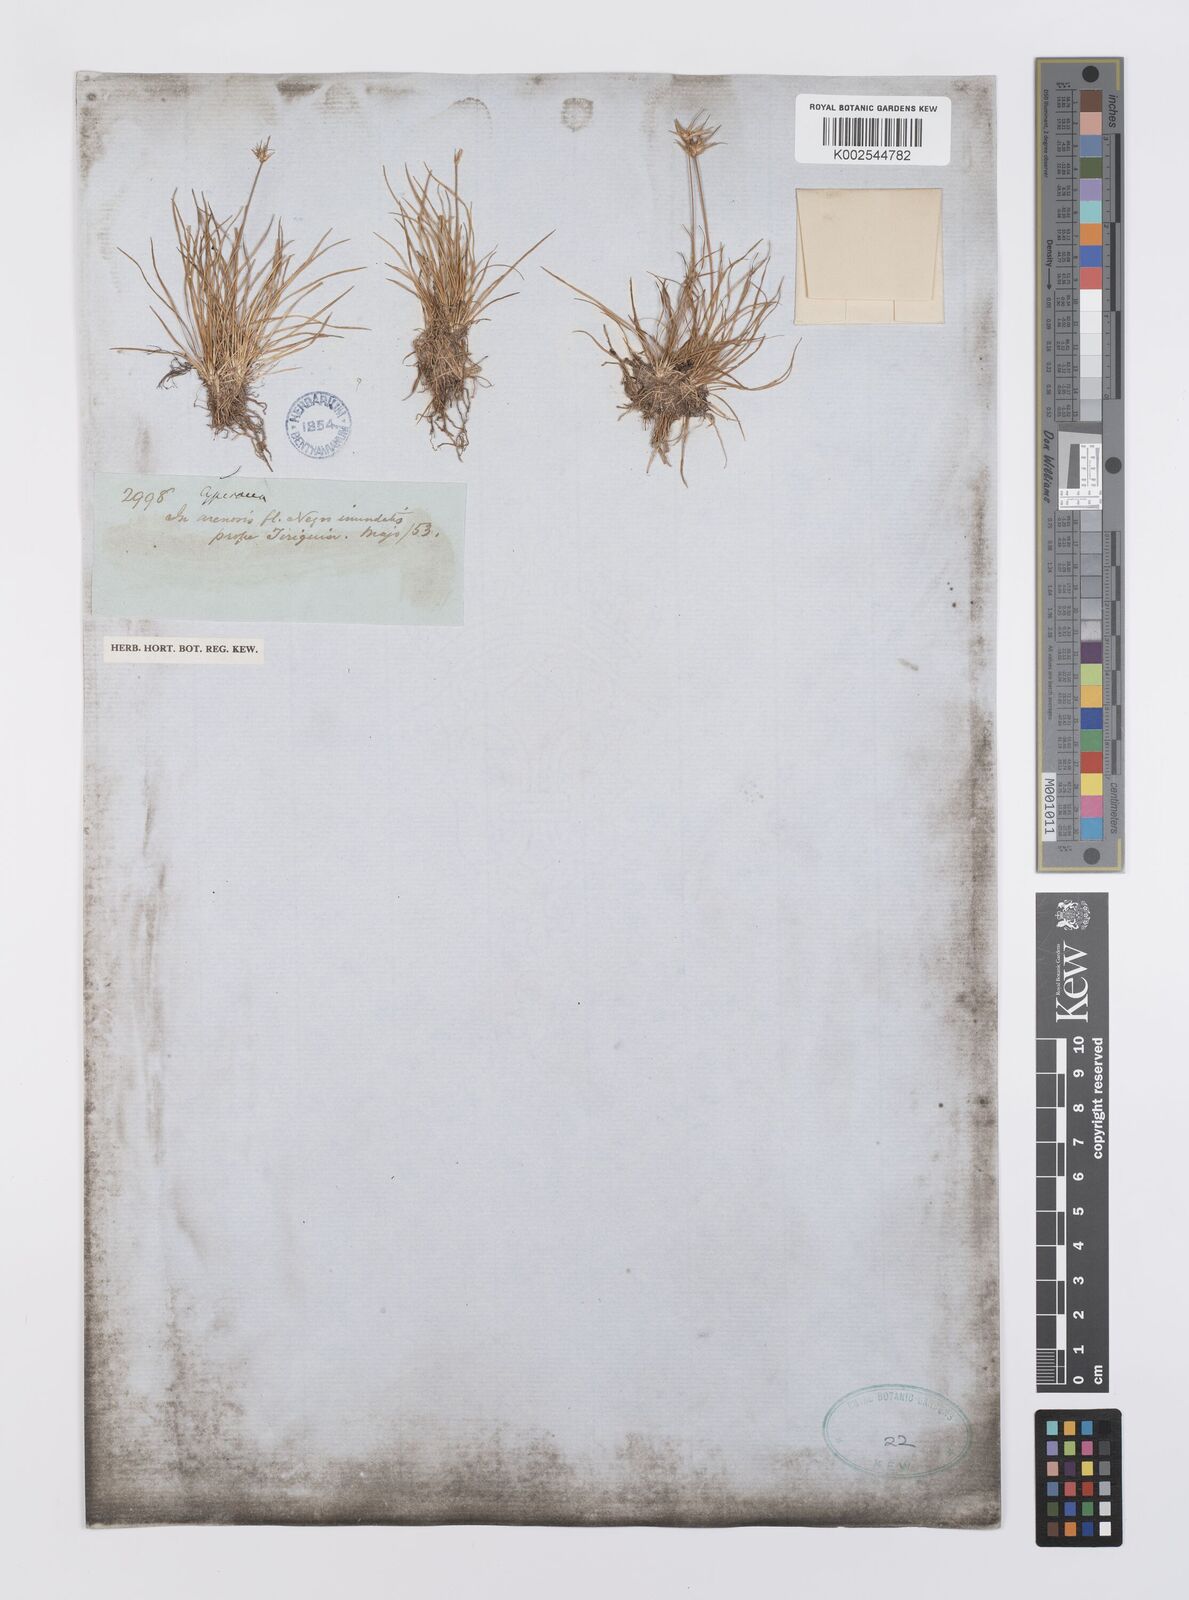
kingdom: Plantae
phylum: Tracheophyta
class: Liliopsida
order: Poales
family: Cyperaceae
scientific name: Cyperaceae
